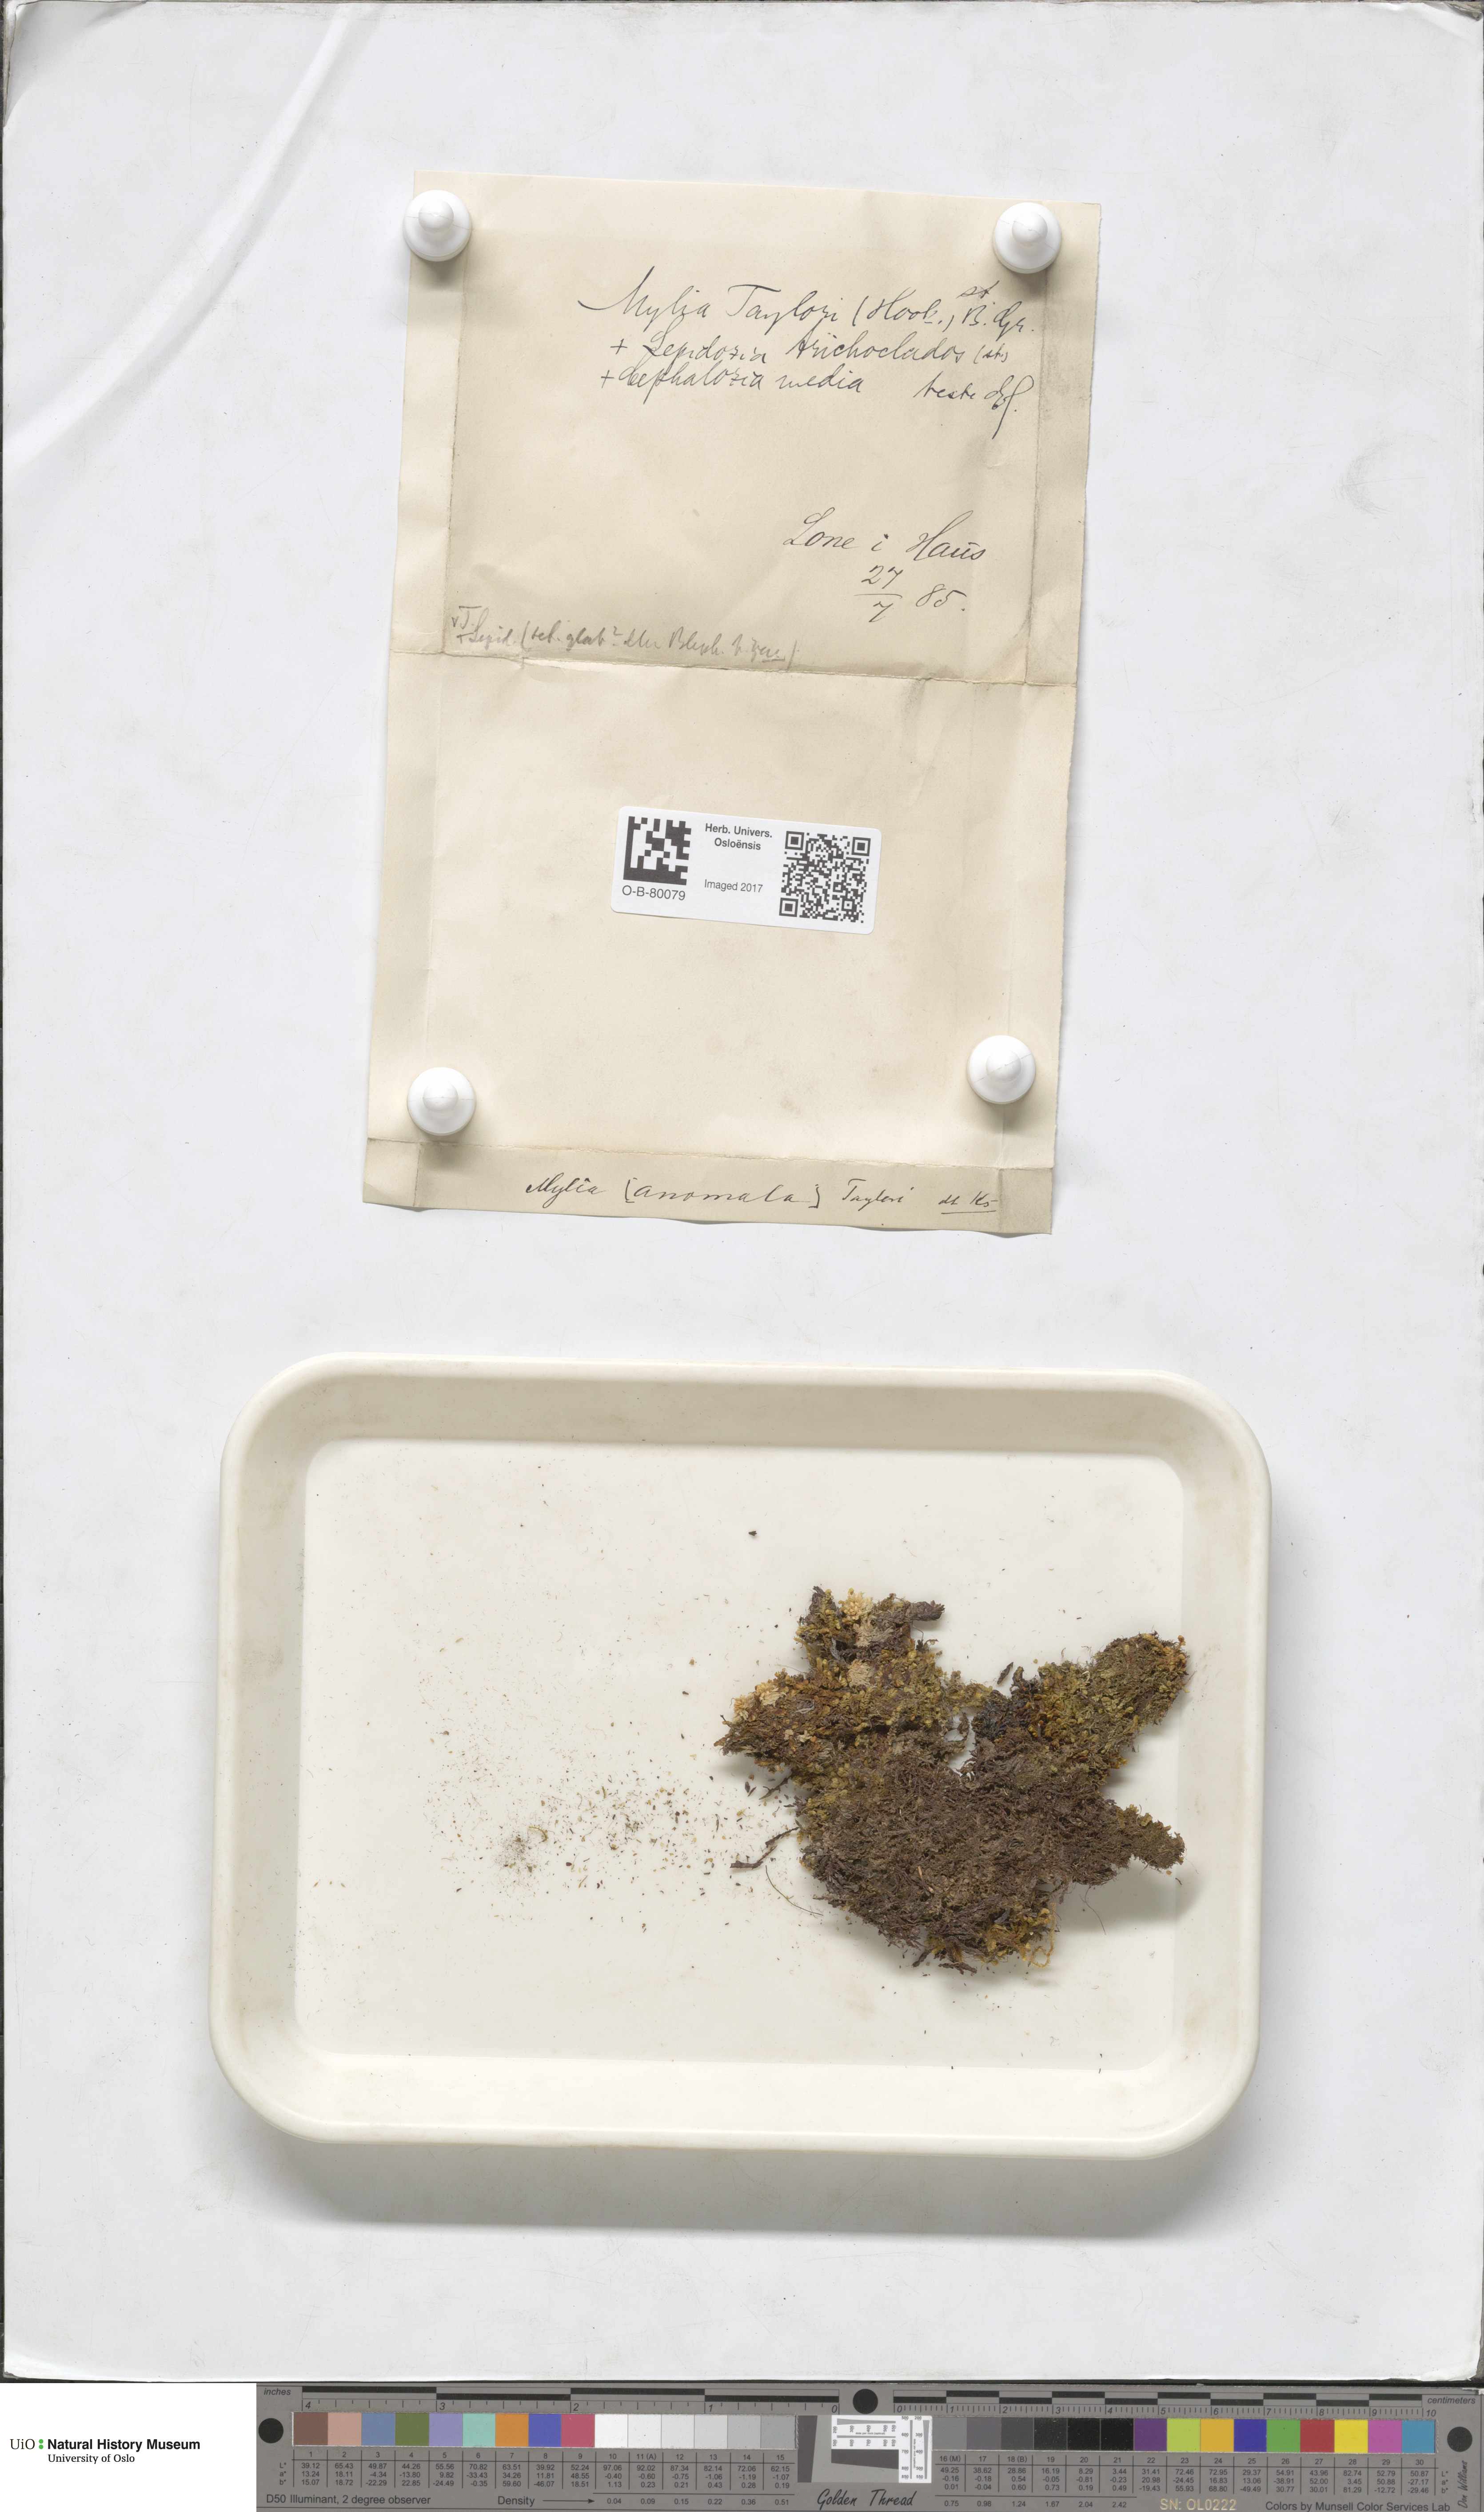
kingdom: Plantae
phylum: Marchantiophyta
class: Jungermanniopsida
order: Jungermanniales
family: Myliaceae
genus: Mylia
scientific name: Mylia taylorii
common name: Taylor s flapwort
